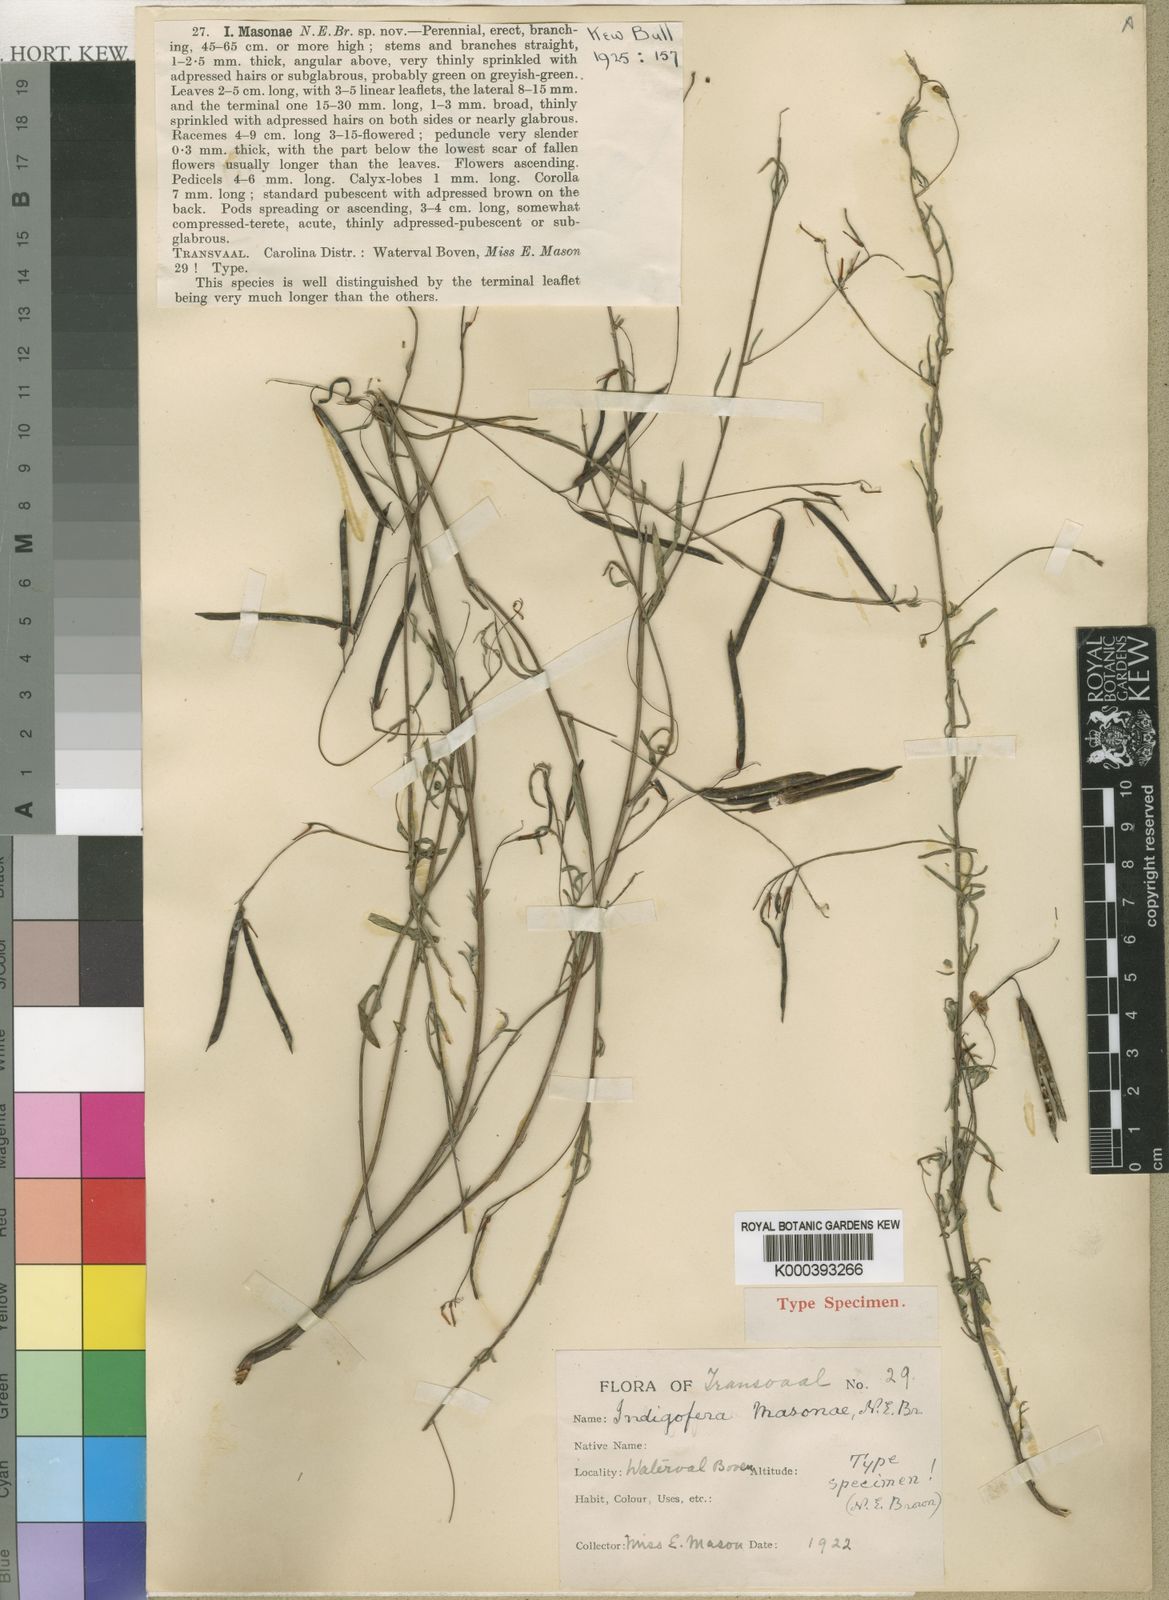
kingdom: Plantae
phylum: Tracheophyta
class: Magnoliopsida
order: Fabales
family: Fabaceae
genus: Indigofera
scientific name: Indigofera masonae
